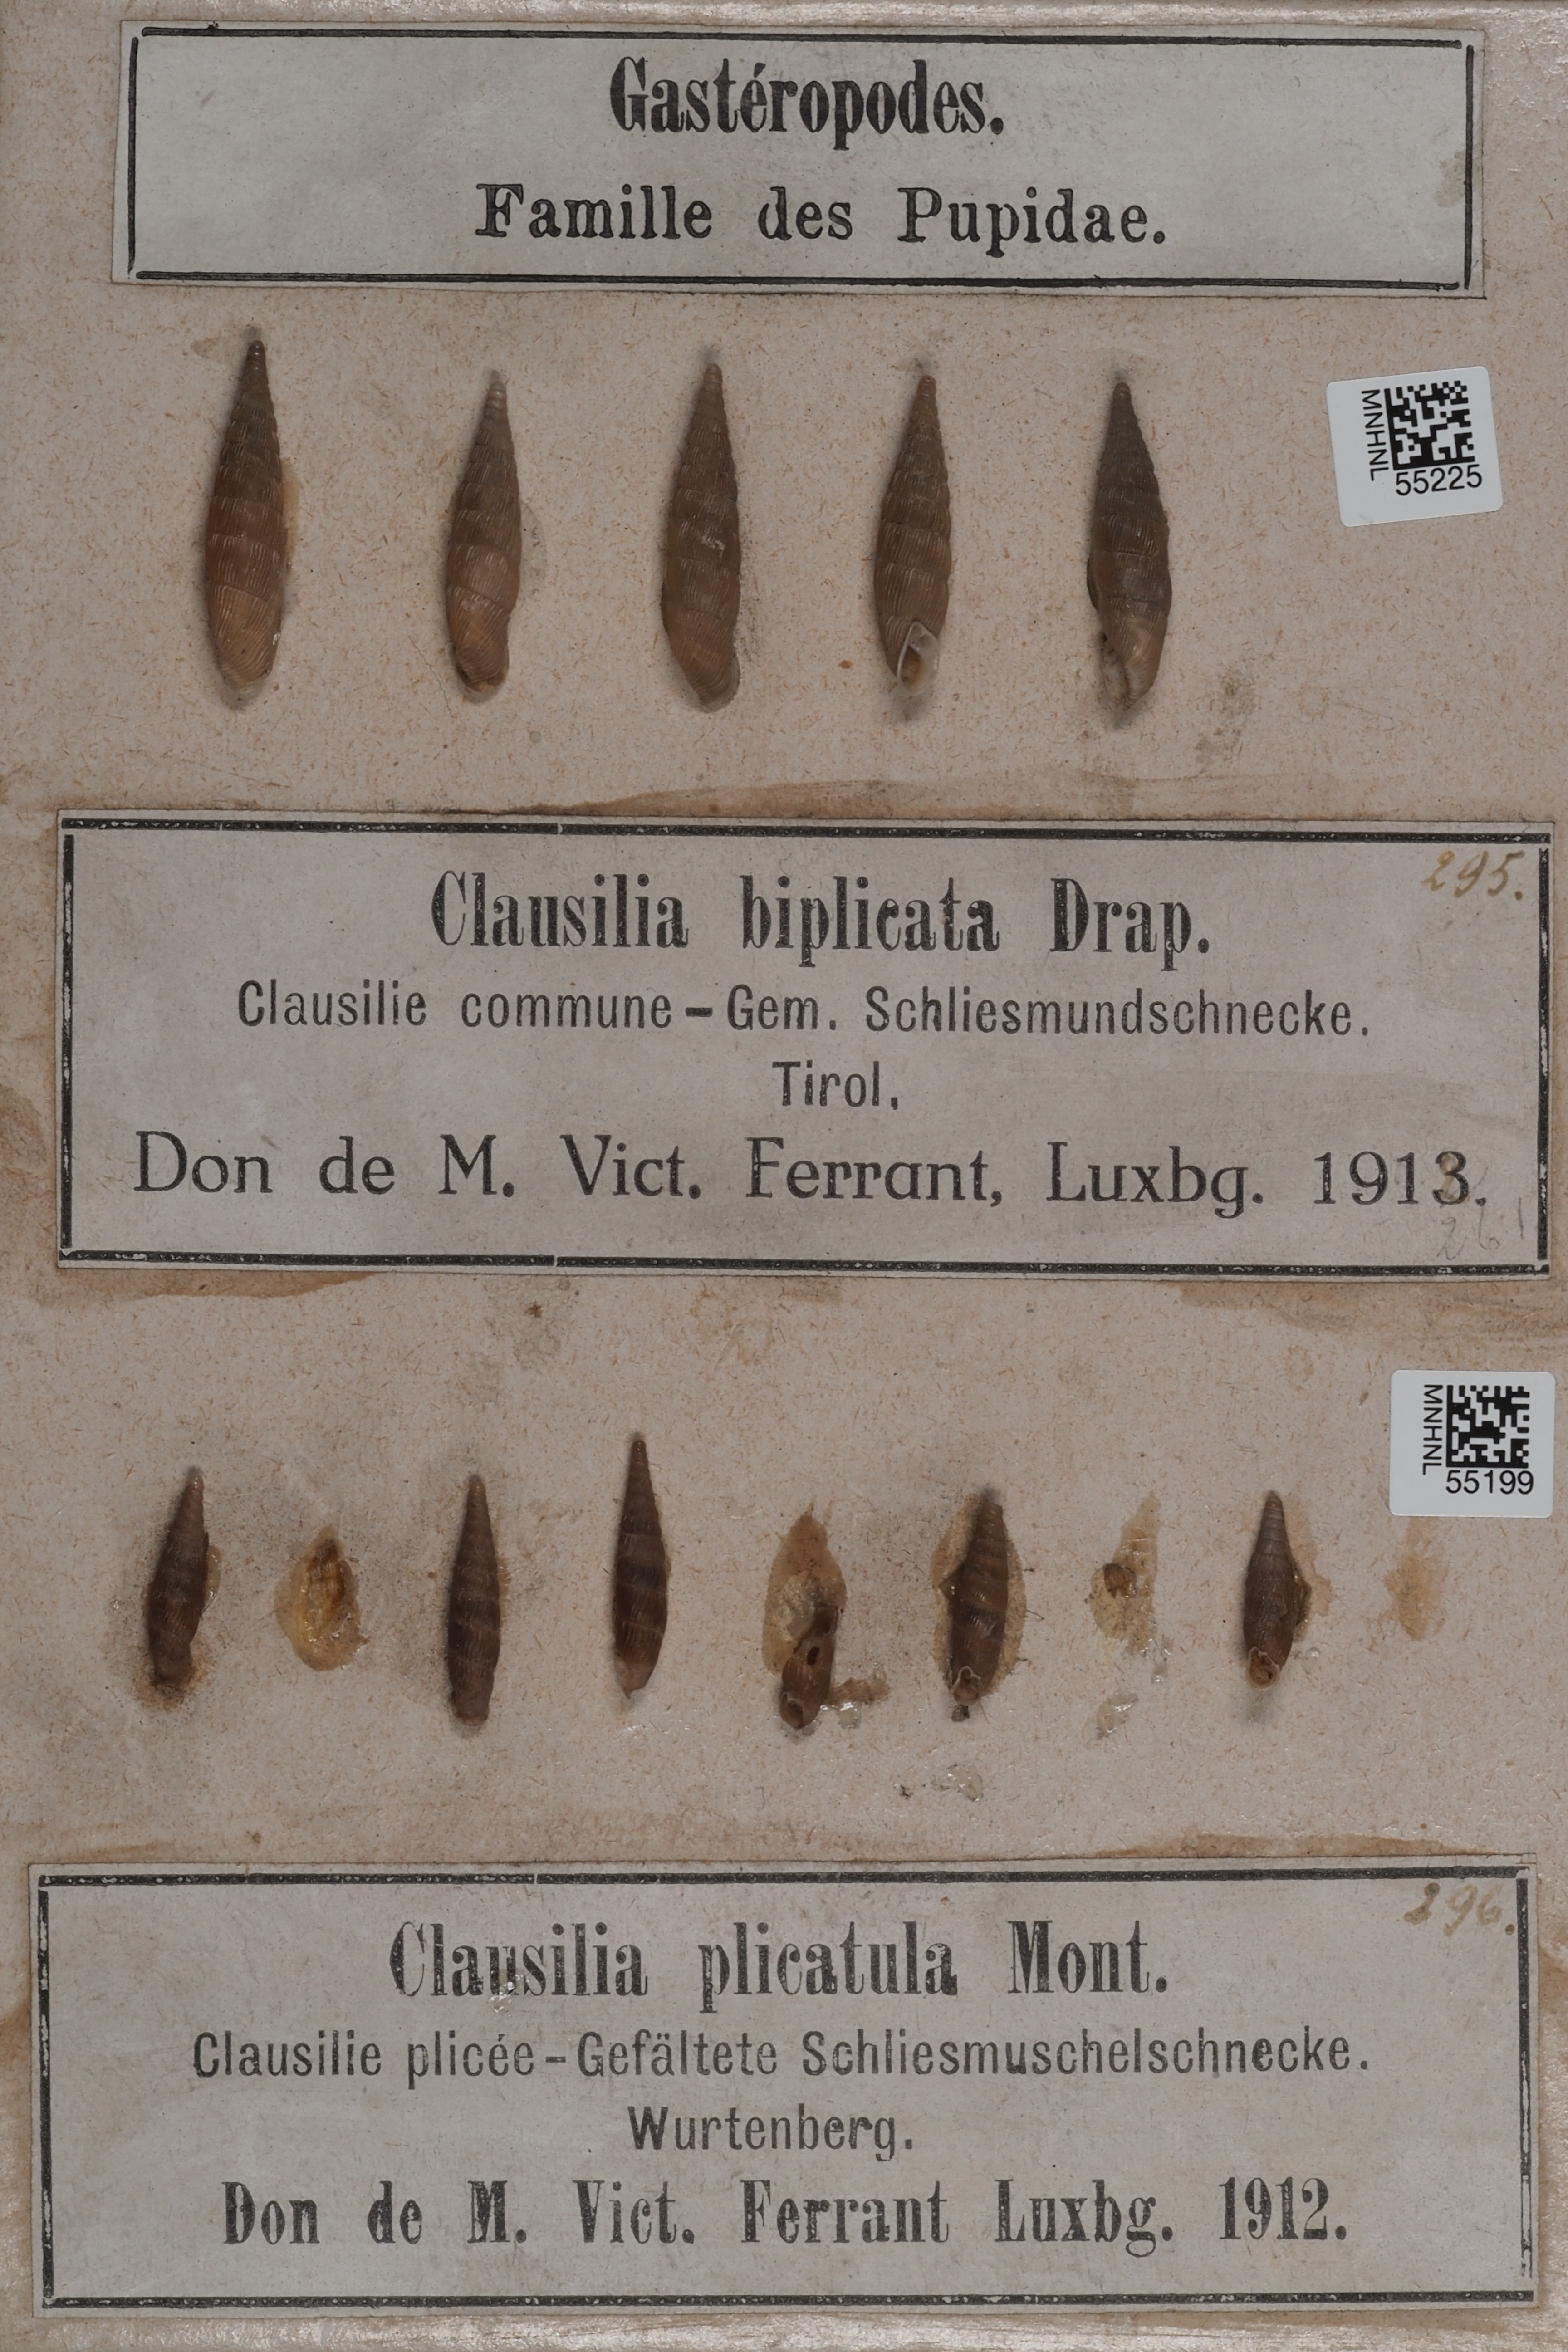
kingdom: Animalia
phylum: Mollusca
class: Gastropoda
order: Stylommatophora
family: Clausiliidae
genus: Alinda
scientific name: Alinda biplicata
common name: Thames door snail
